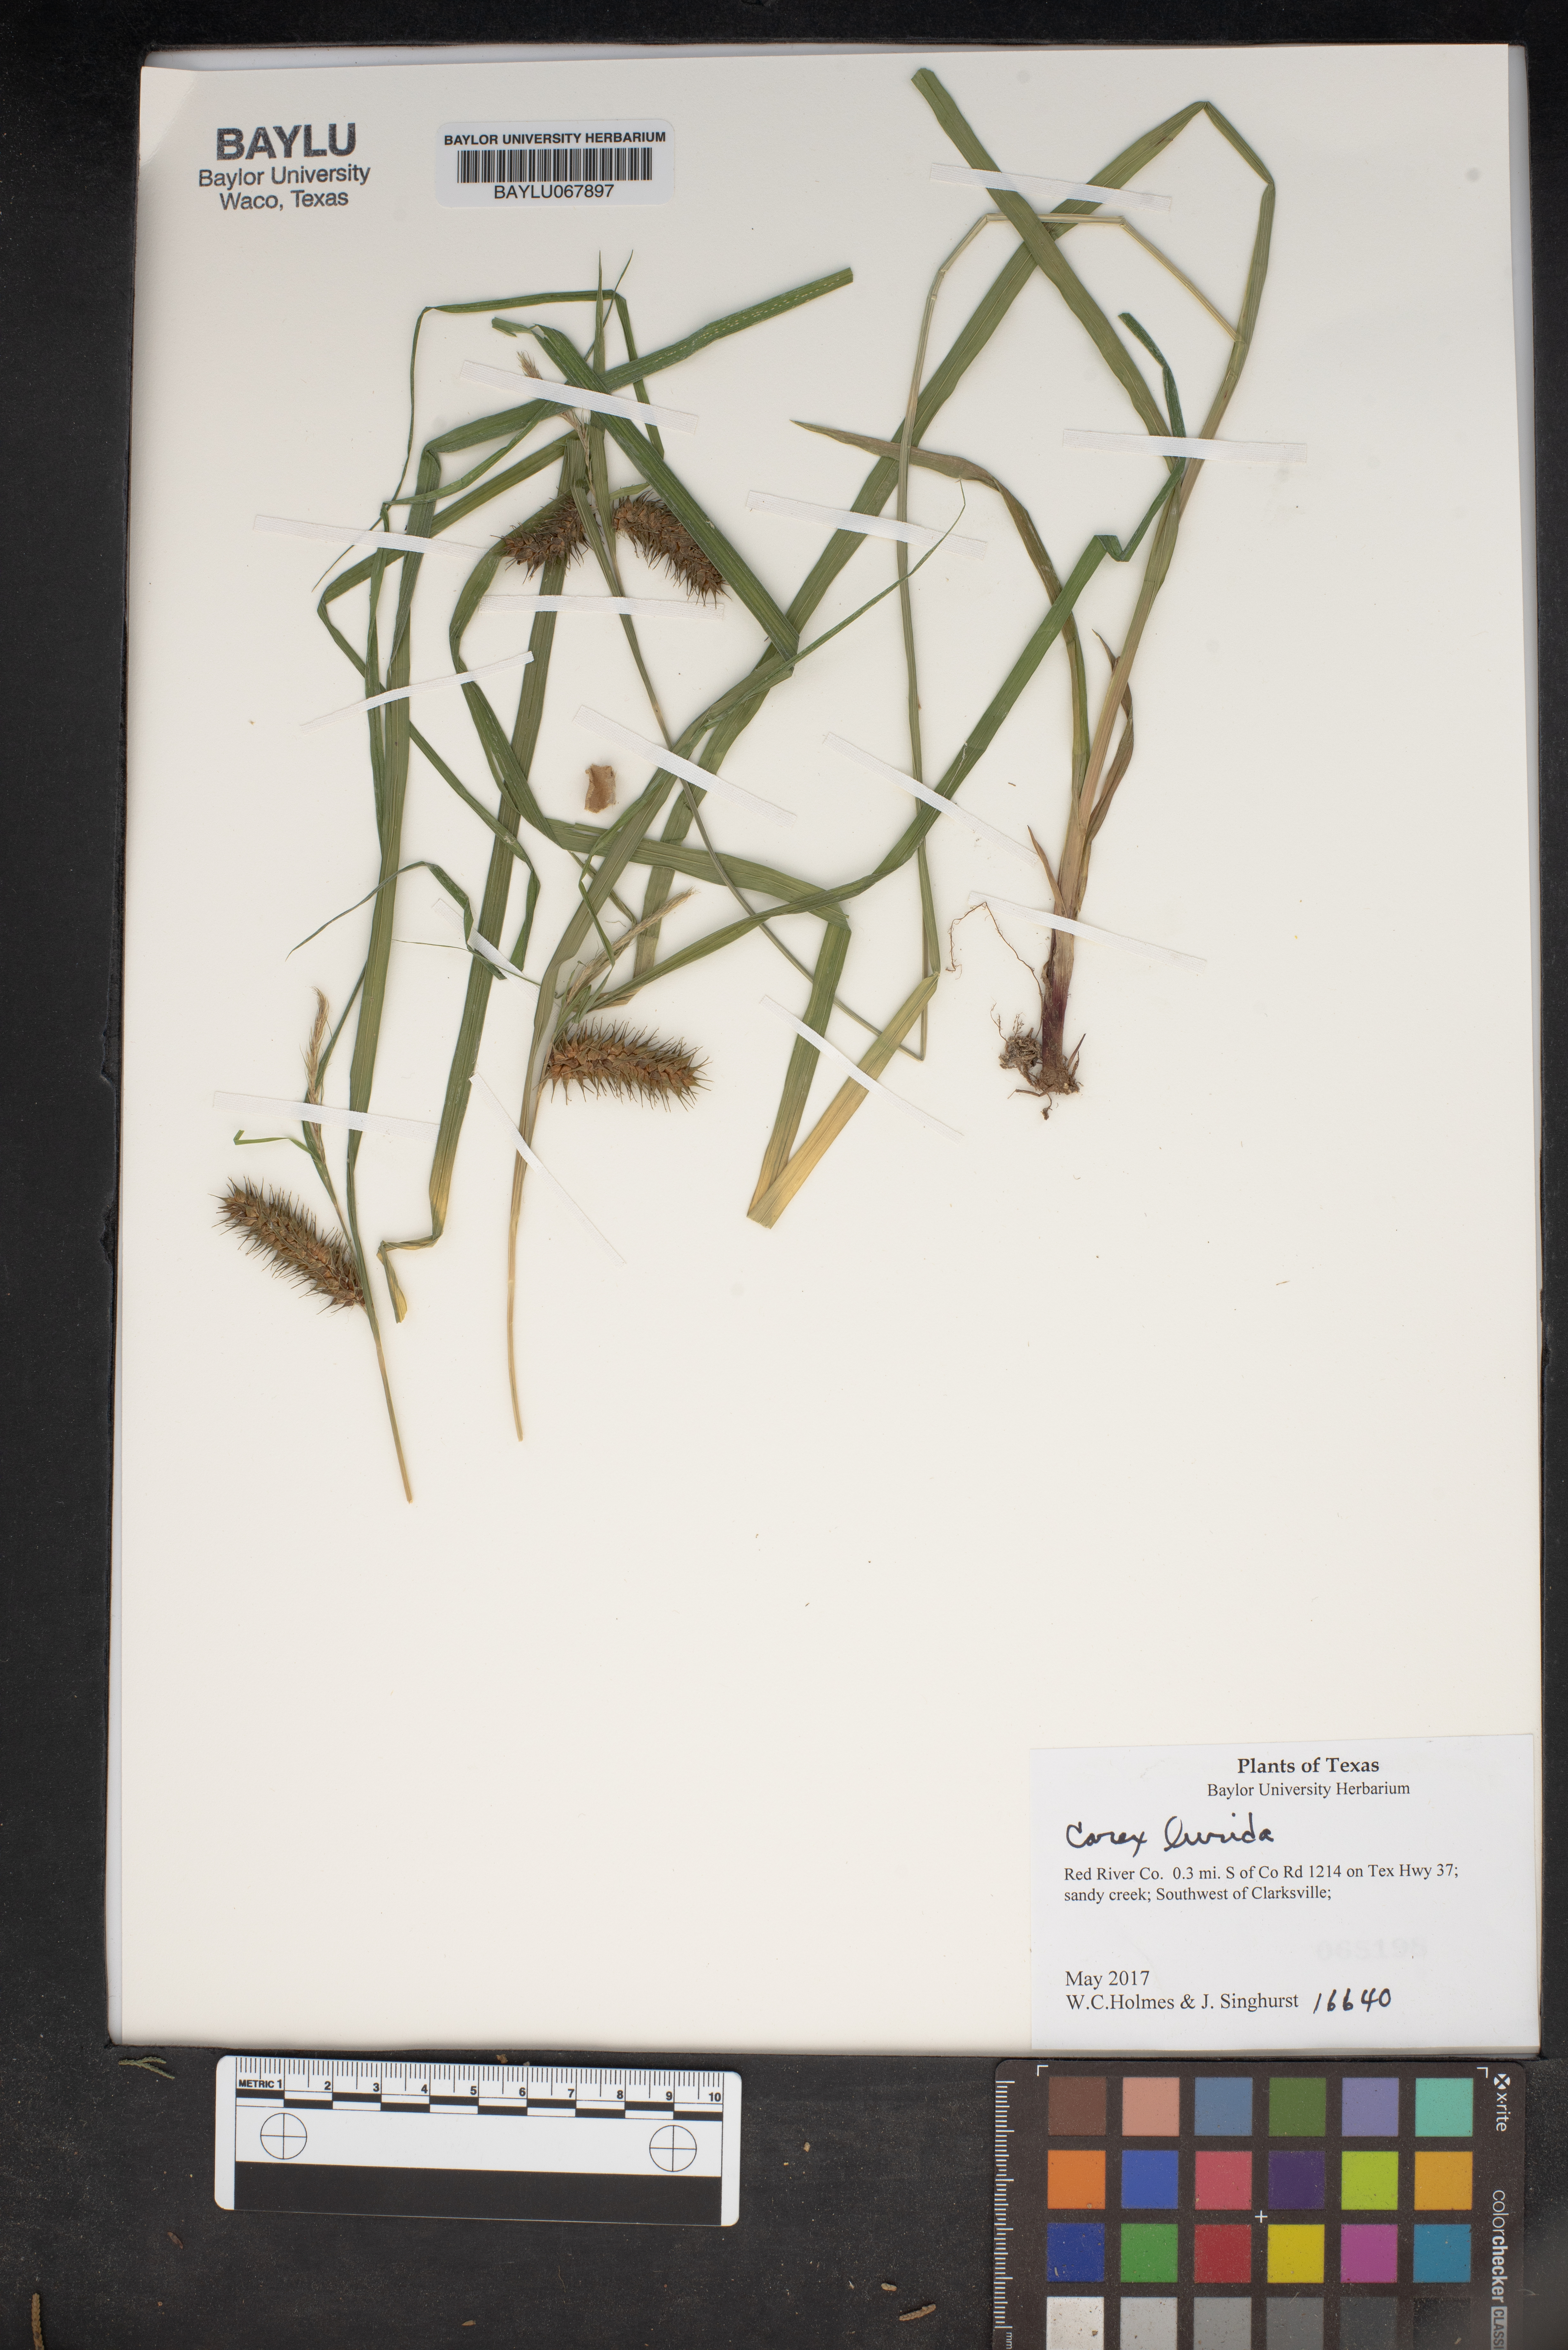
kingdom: Plantae
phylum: Tracheophyta
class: Liliopsida
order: Poales
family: Cyperaceae
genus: Carex
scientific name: Carex lurida
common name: Sallow sedge
